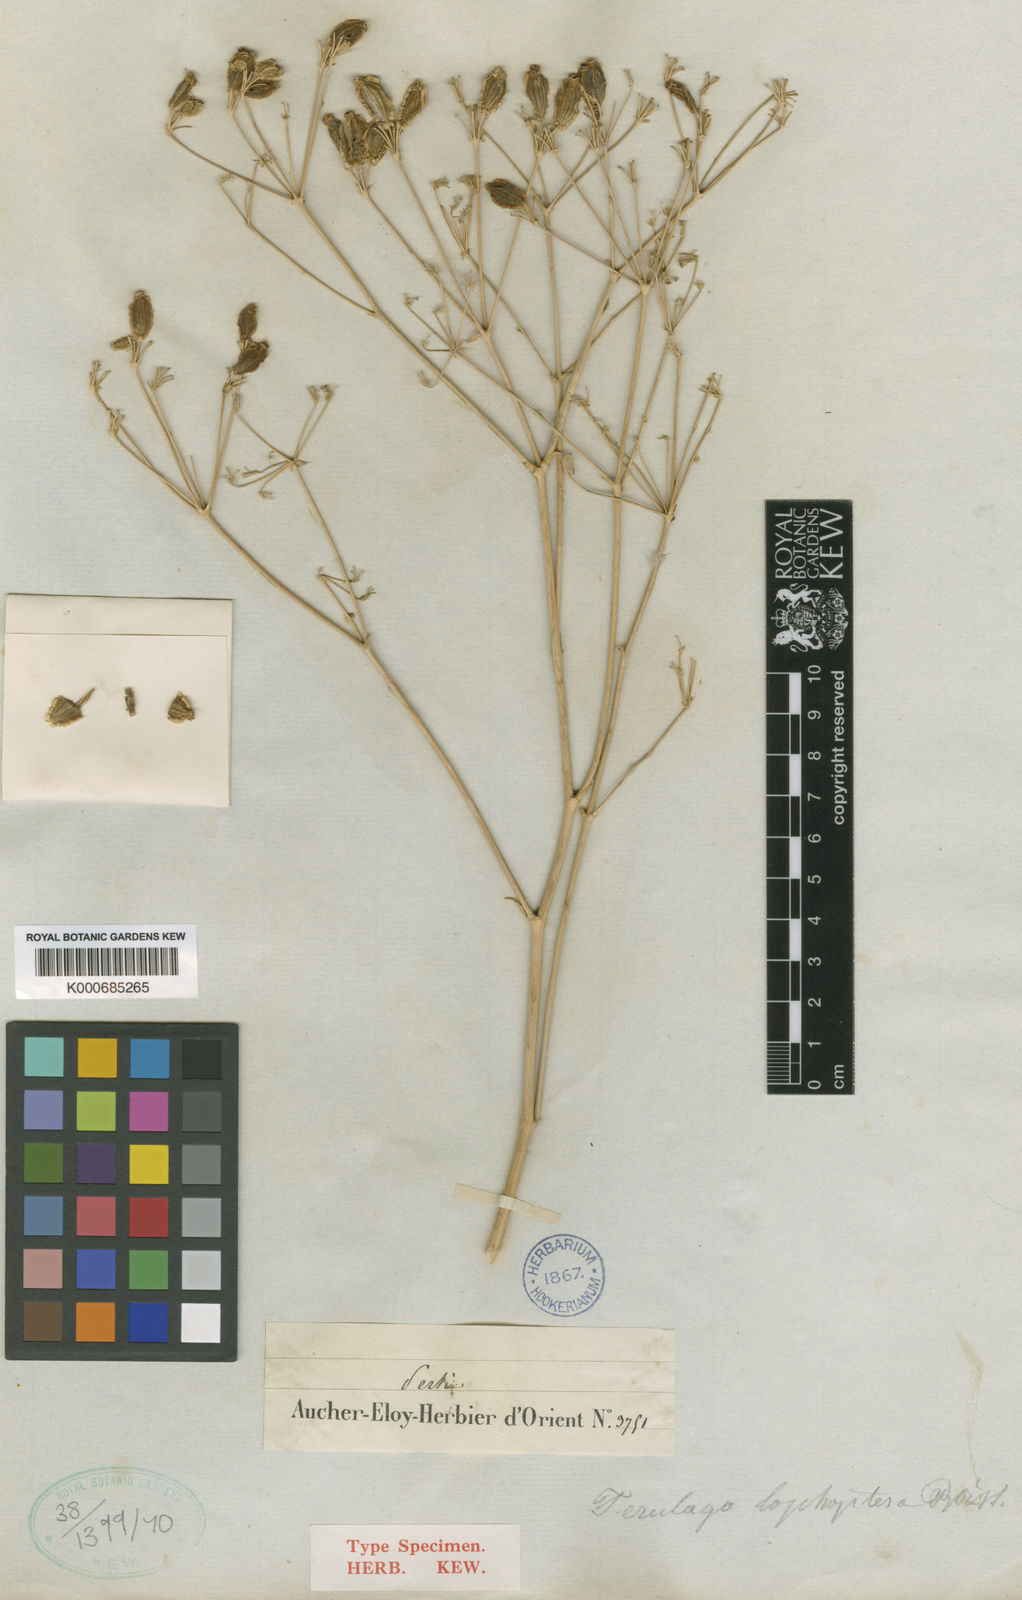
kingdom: Plantae
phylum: Tracheophyta
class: Magnoliopsida
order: Apiales
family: Apiaceae
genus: Ferulago
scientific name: Ferulago macrocarpa
